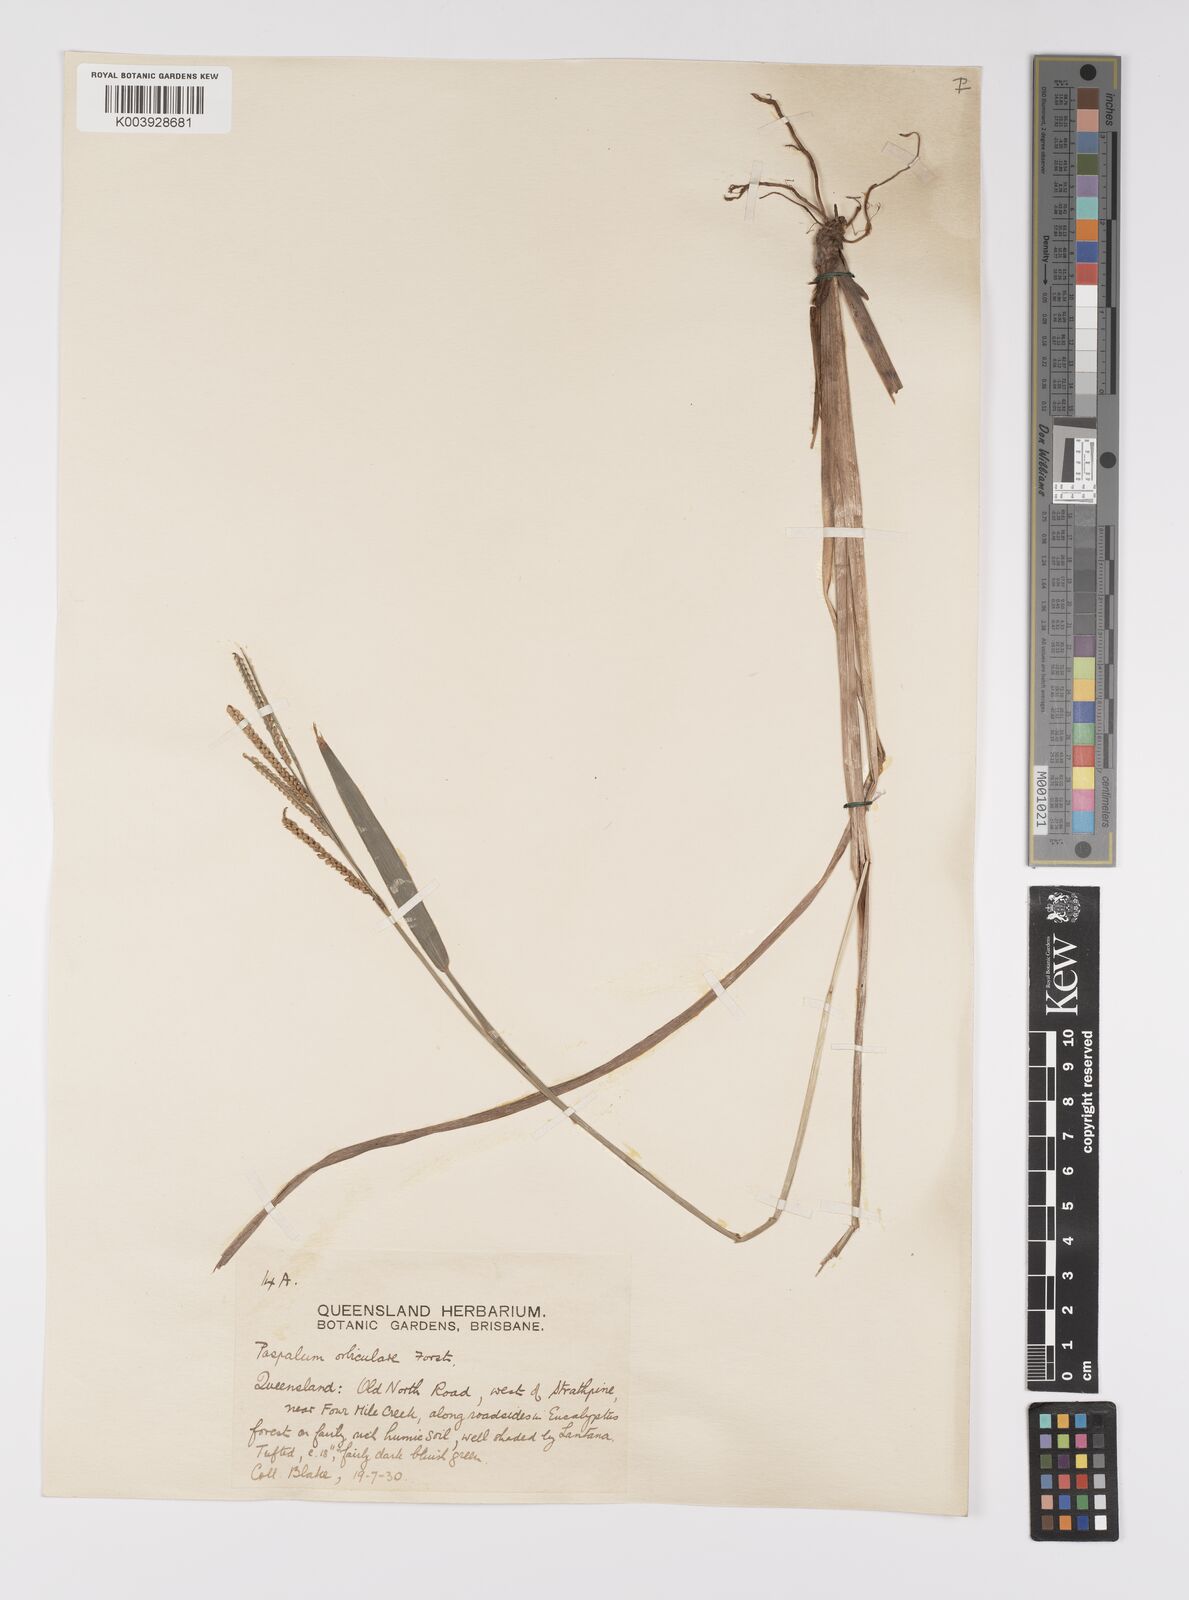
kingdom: Plantae
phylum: Tracheophyta
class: Liliopsida
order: Poales
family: Poaceae
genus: Paspalum
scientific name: Paspalum scrobiculatum
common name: Kodo millet
